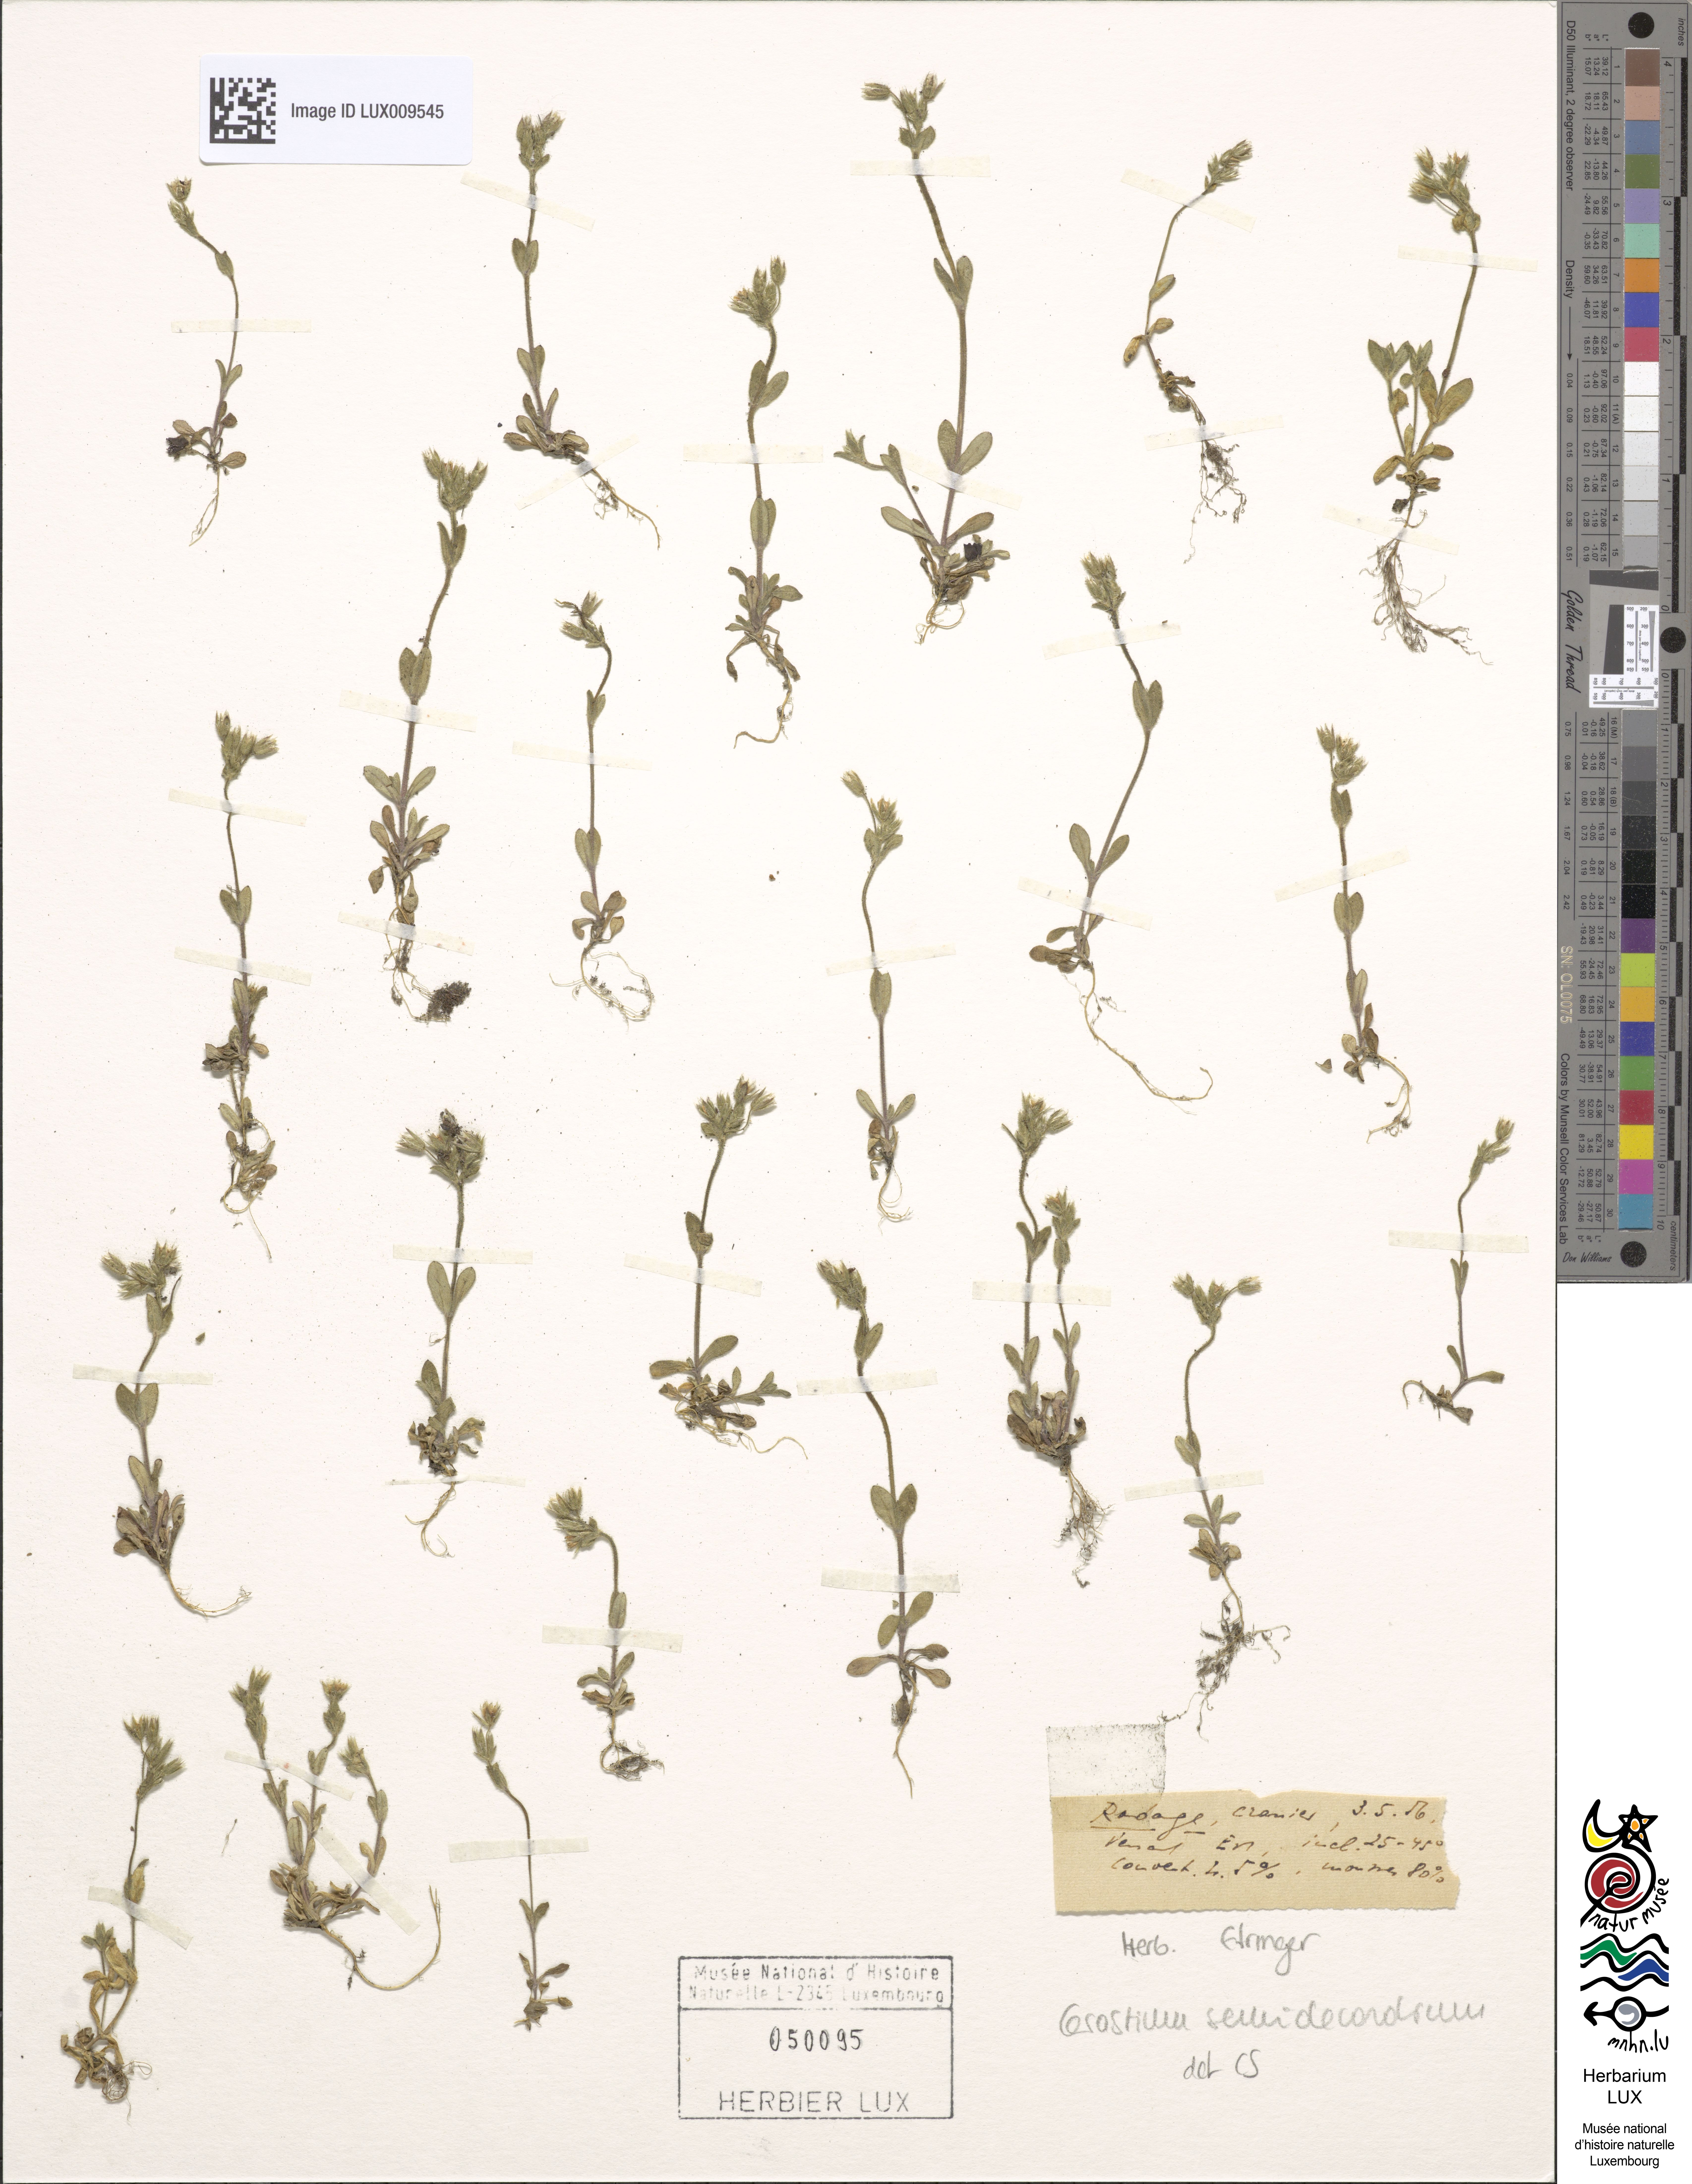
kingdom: Plantae
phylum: Tracheophyta
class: Magnoliopsida
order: Caryophyllales
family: Caryophyllaceae
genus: Cerastium
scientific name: Cerastium semidecandrum
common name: Little mouse-ear
